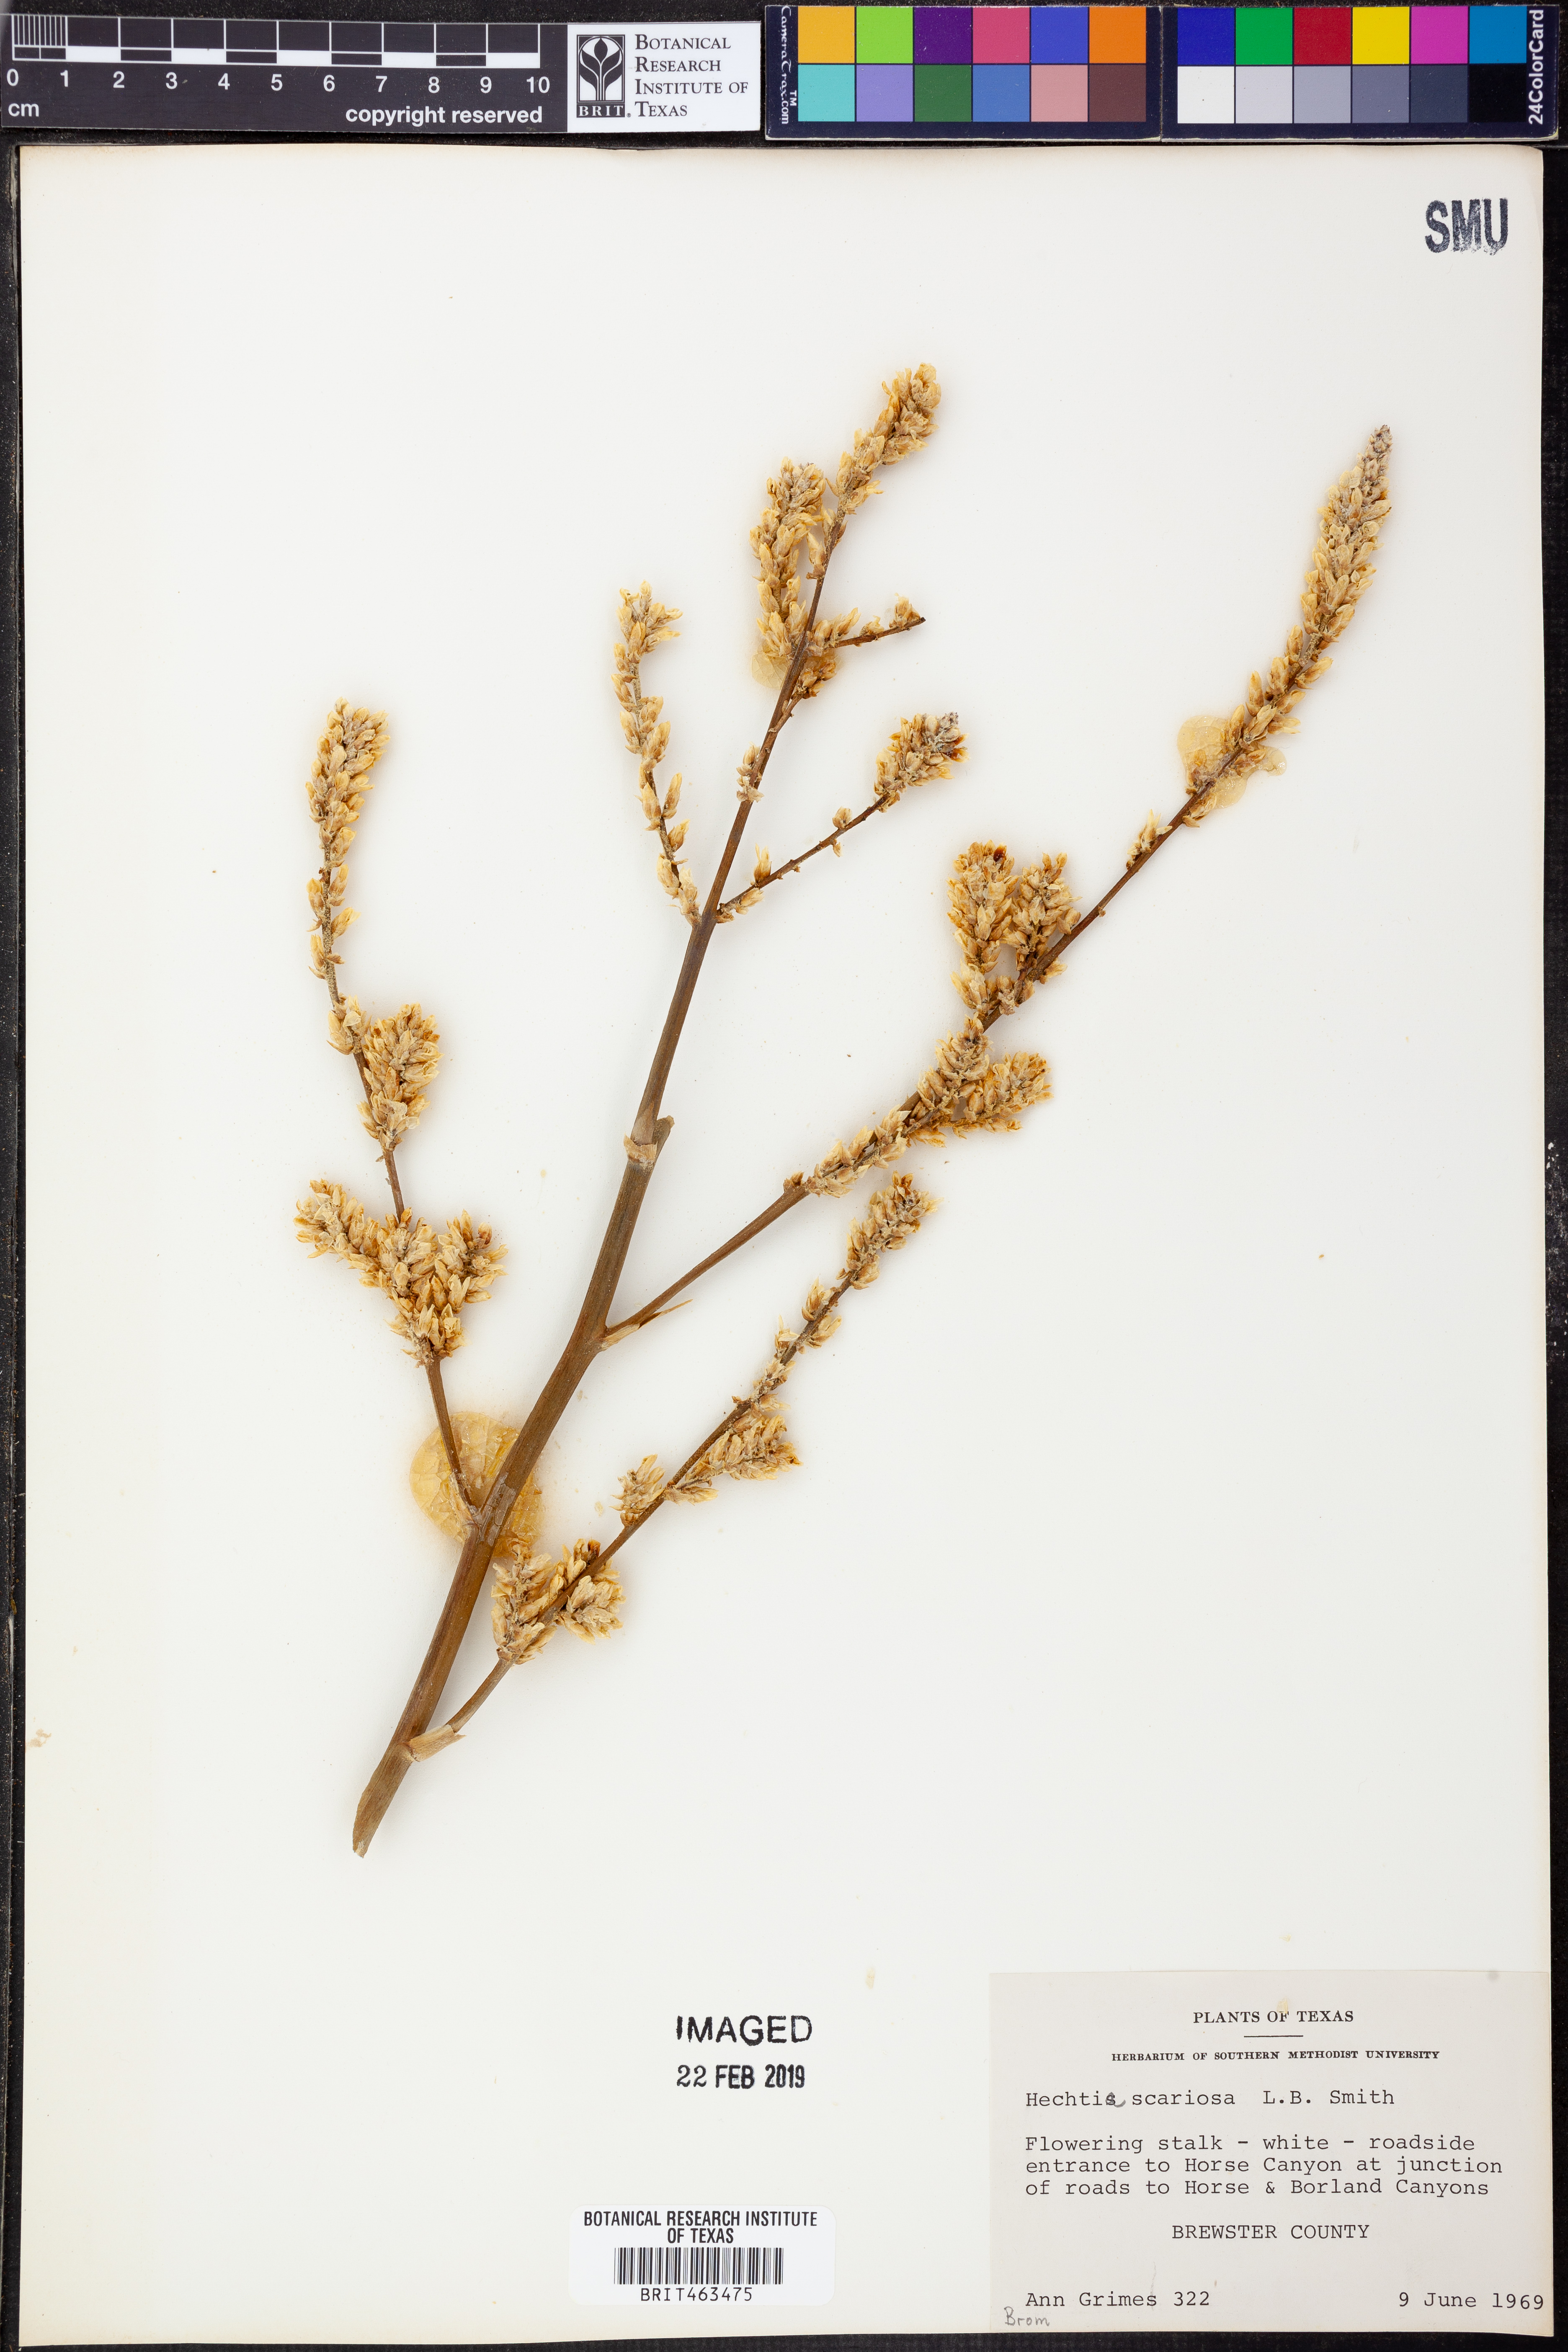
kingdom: Plantae
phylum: Tracheophyta
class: Liliopsida
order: Poales
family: Bromeliaceae
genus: Hechtia
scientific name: Hechtia texensis
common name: False agave
